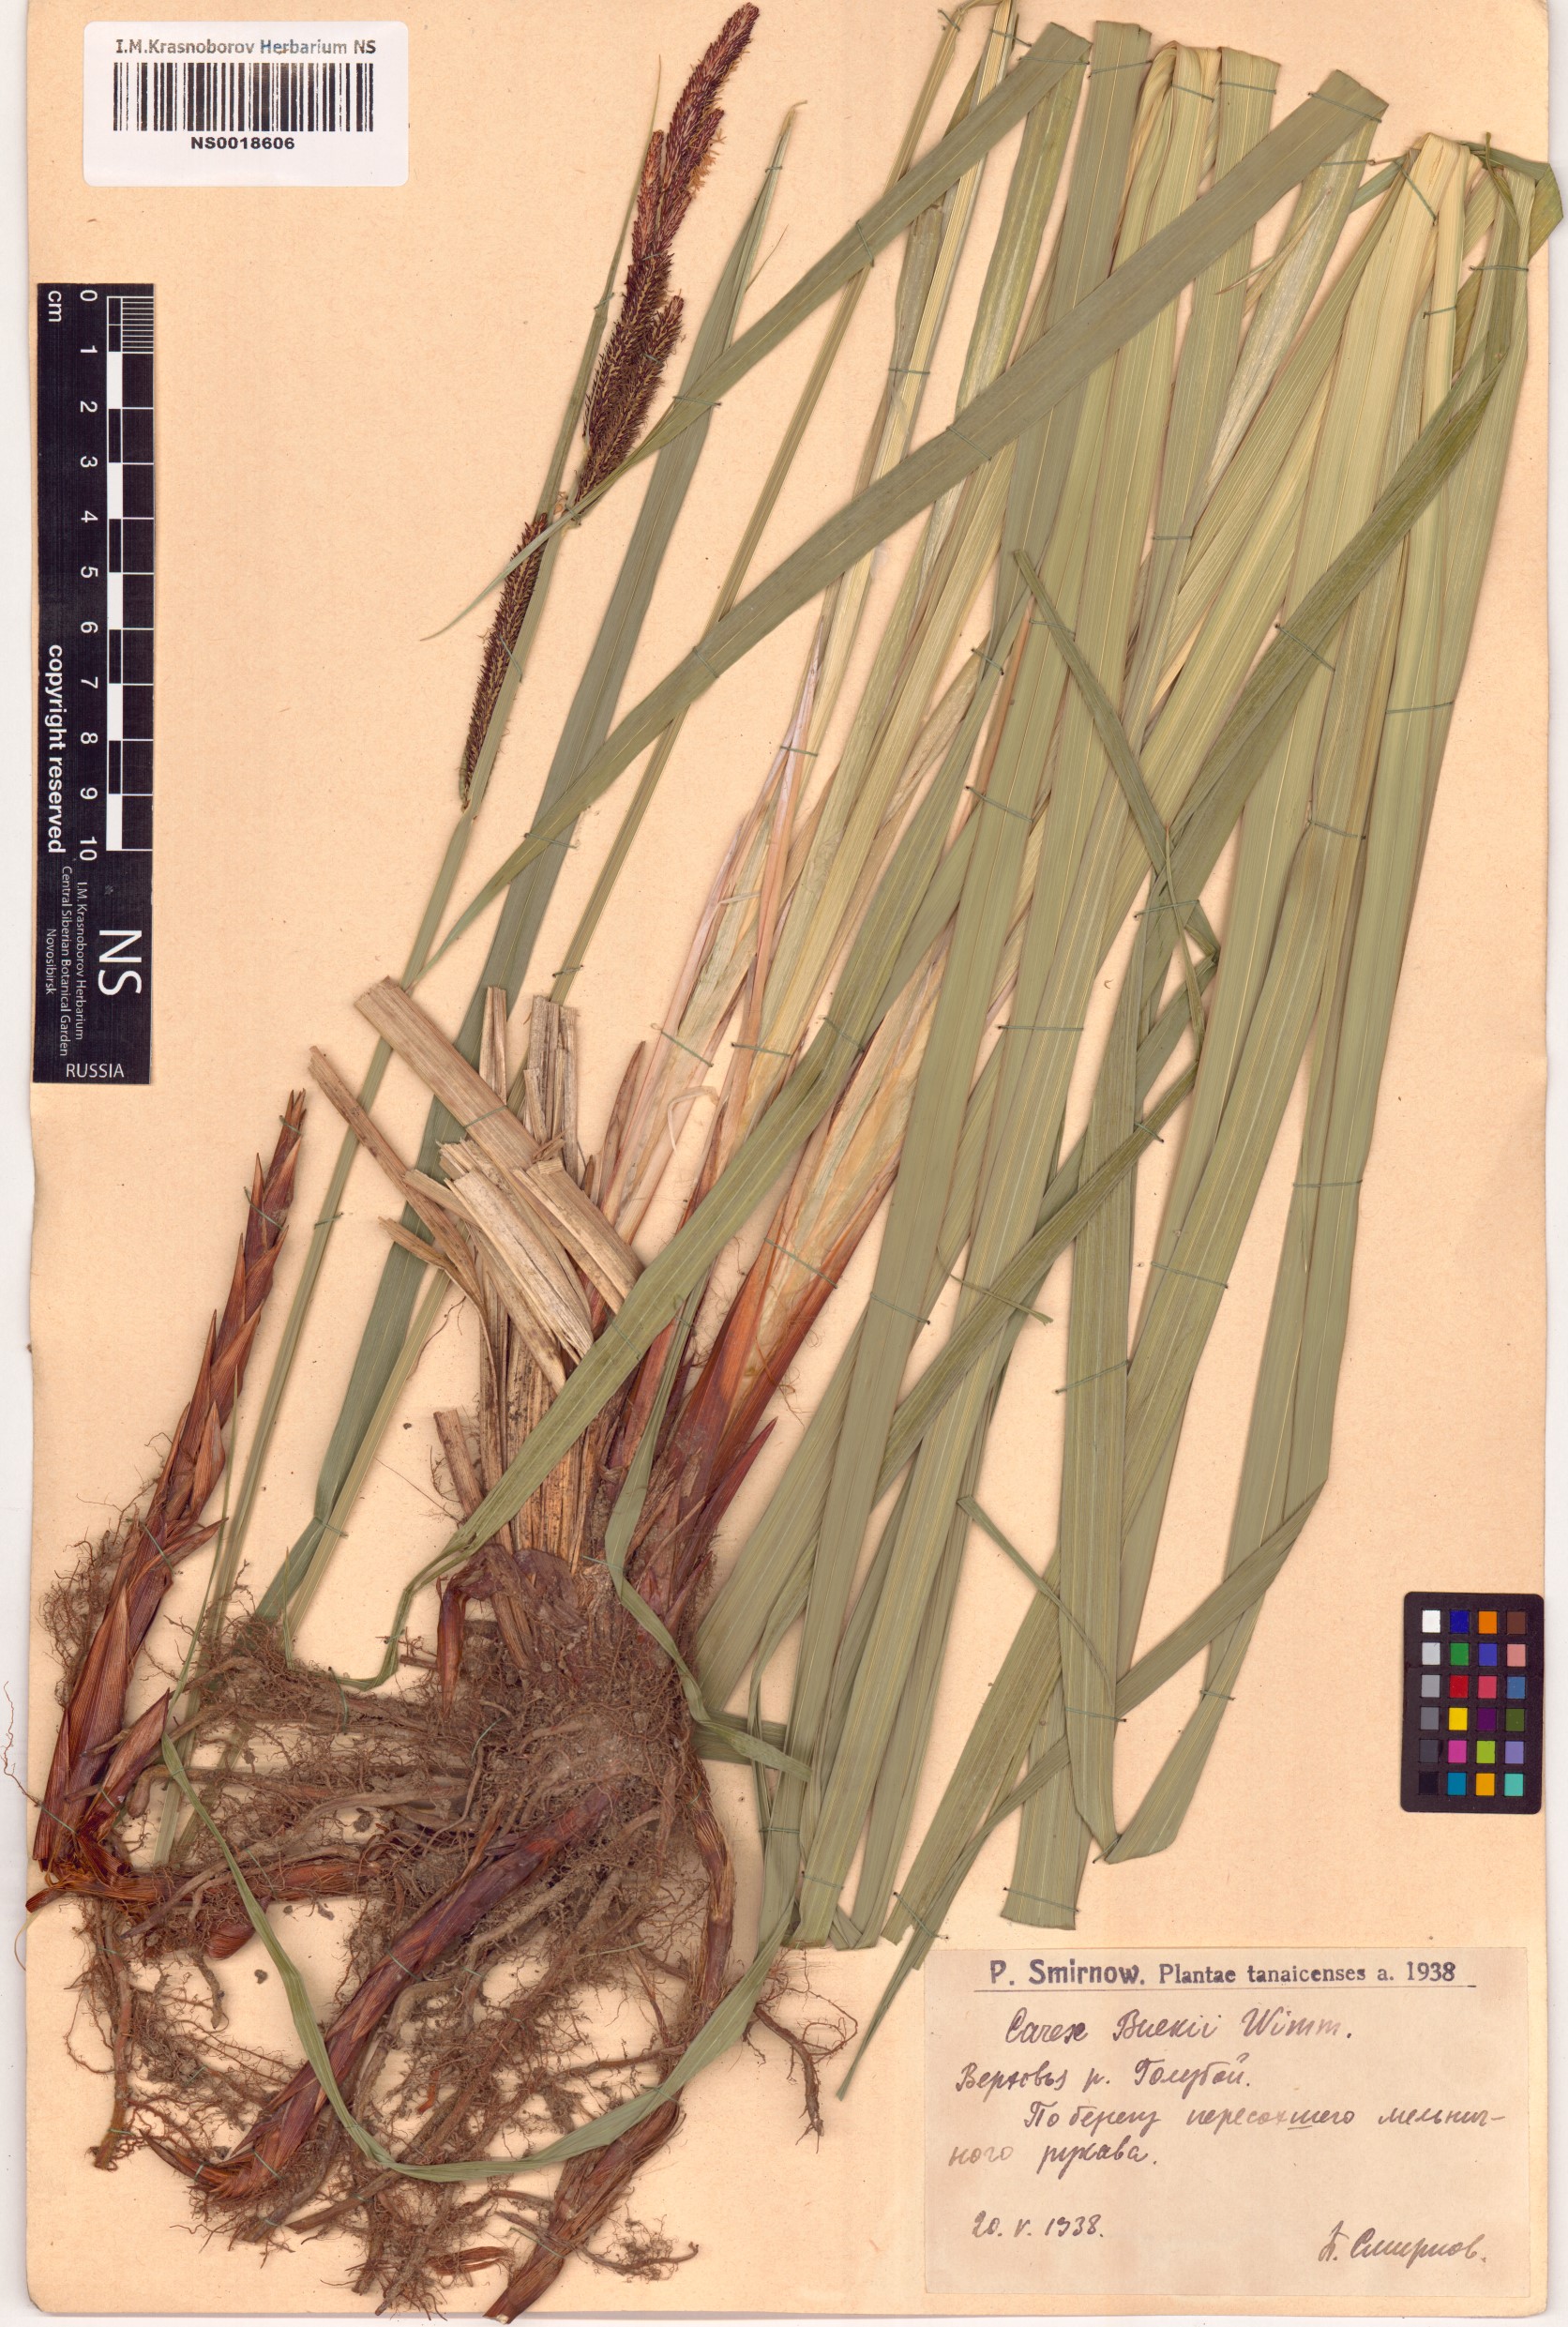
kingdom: Plantae
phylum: Tracheophyta
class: Liliopsida
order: Poales
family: Cyperaceae
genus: Carex
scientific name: Carex buekii
